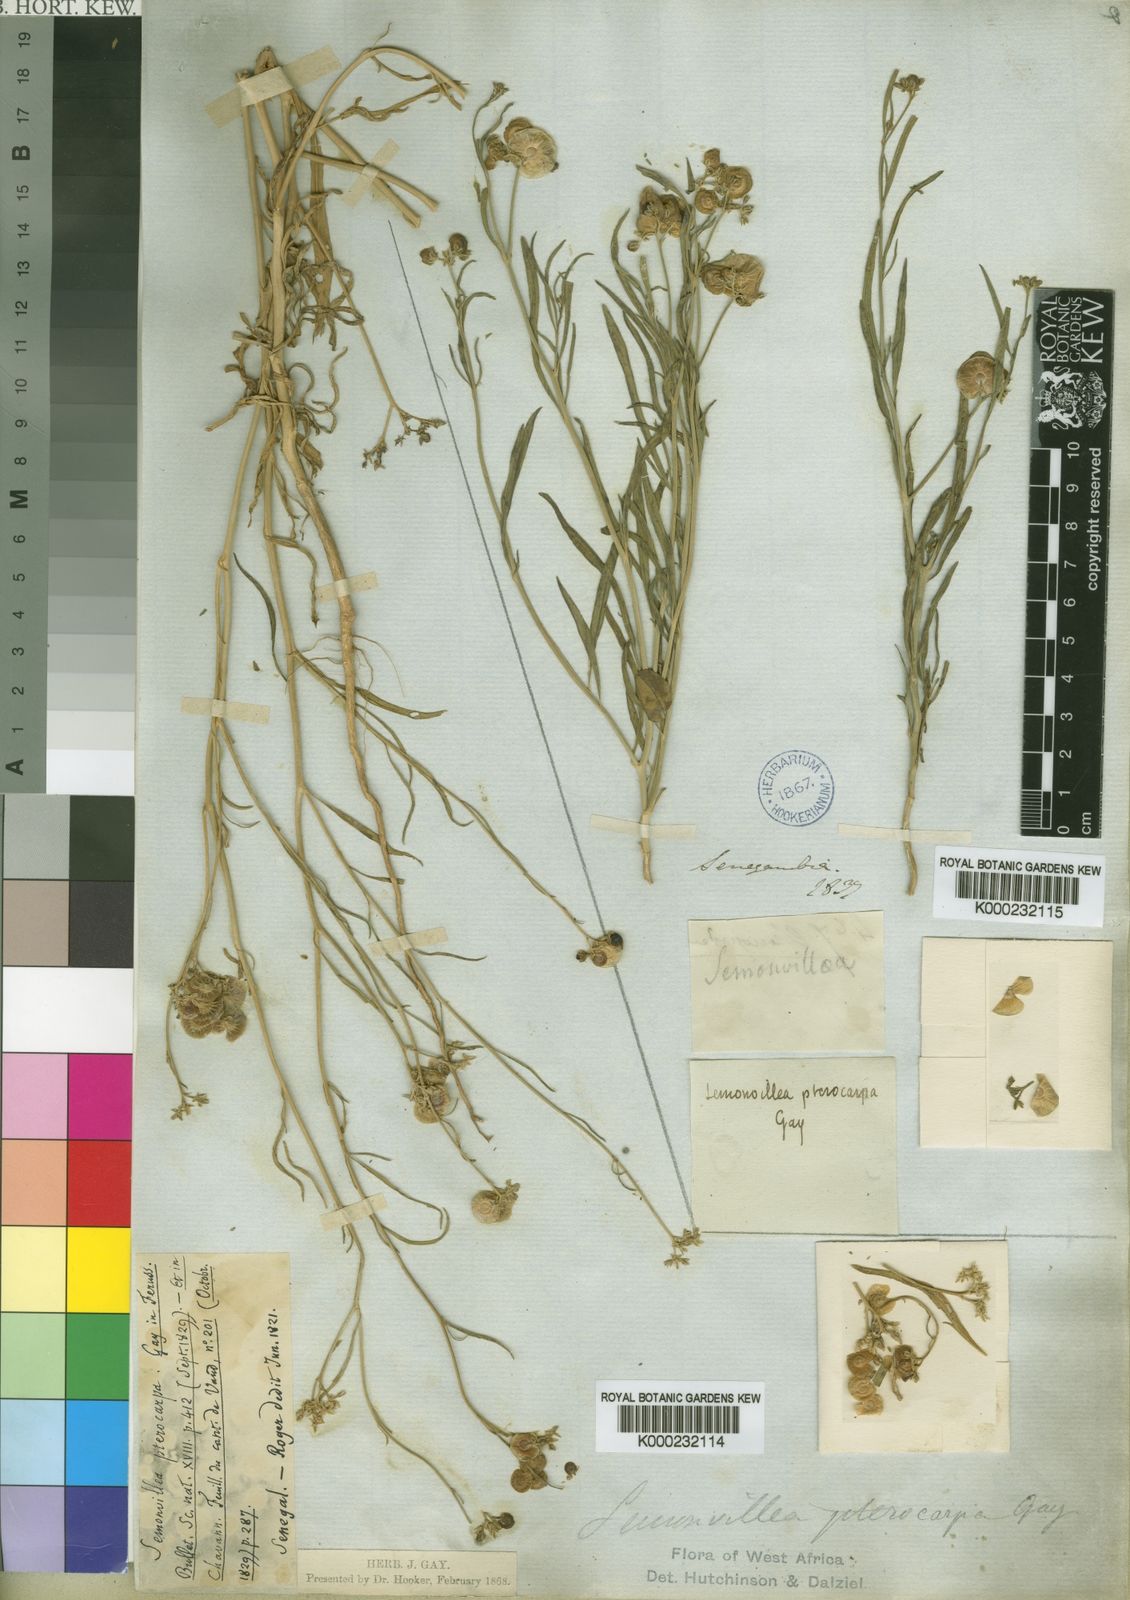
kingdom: Plantae
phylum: Tracheophyta
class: Magnoliopsida
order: Caryophyllales
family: Limeaceae
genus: Limeum
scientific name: Limeum pterocarpum
